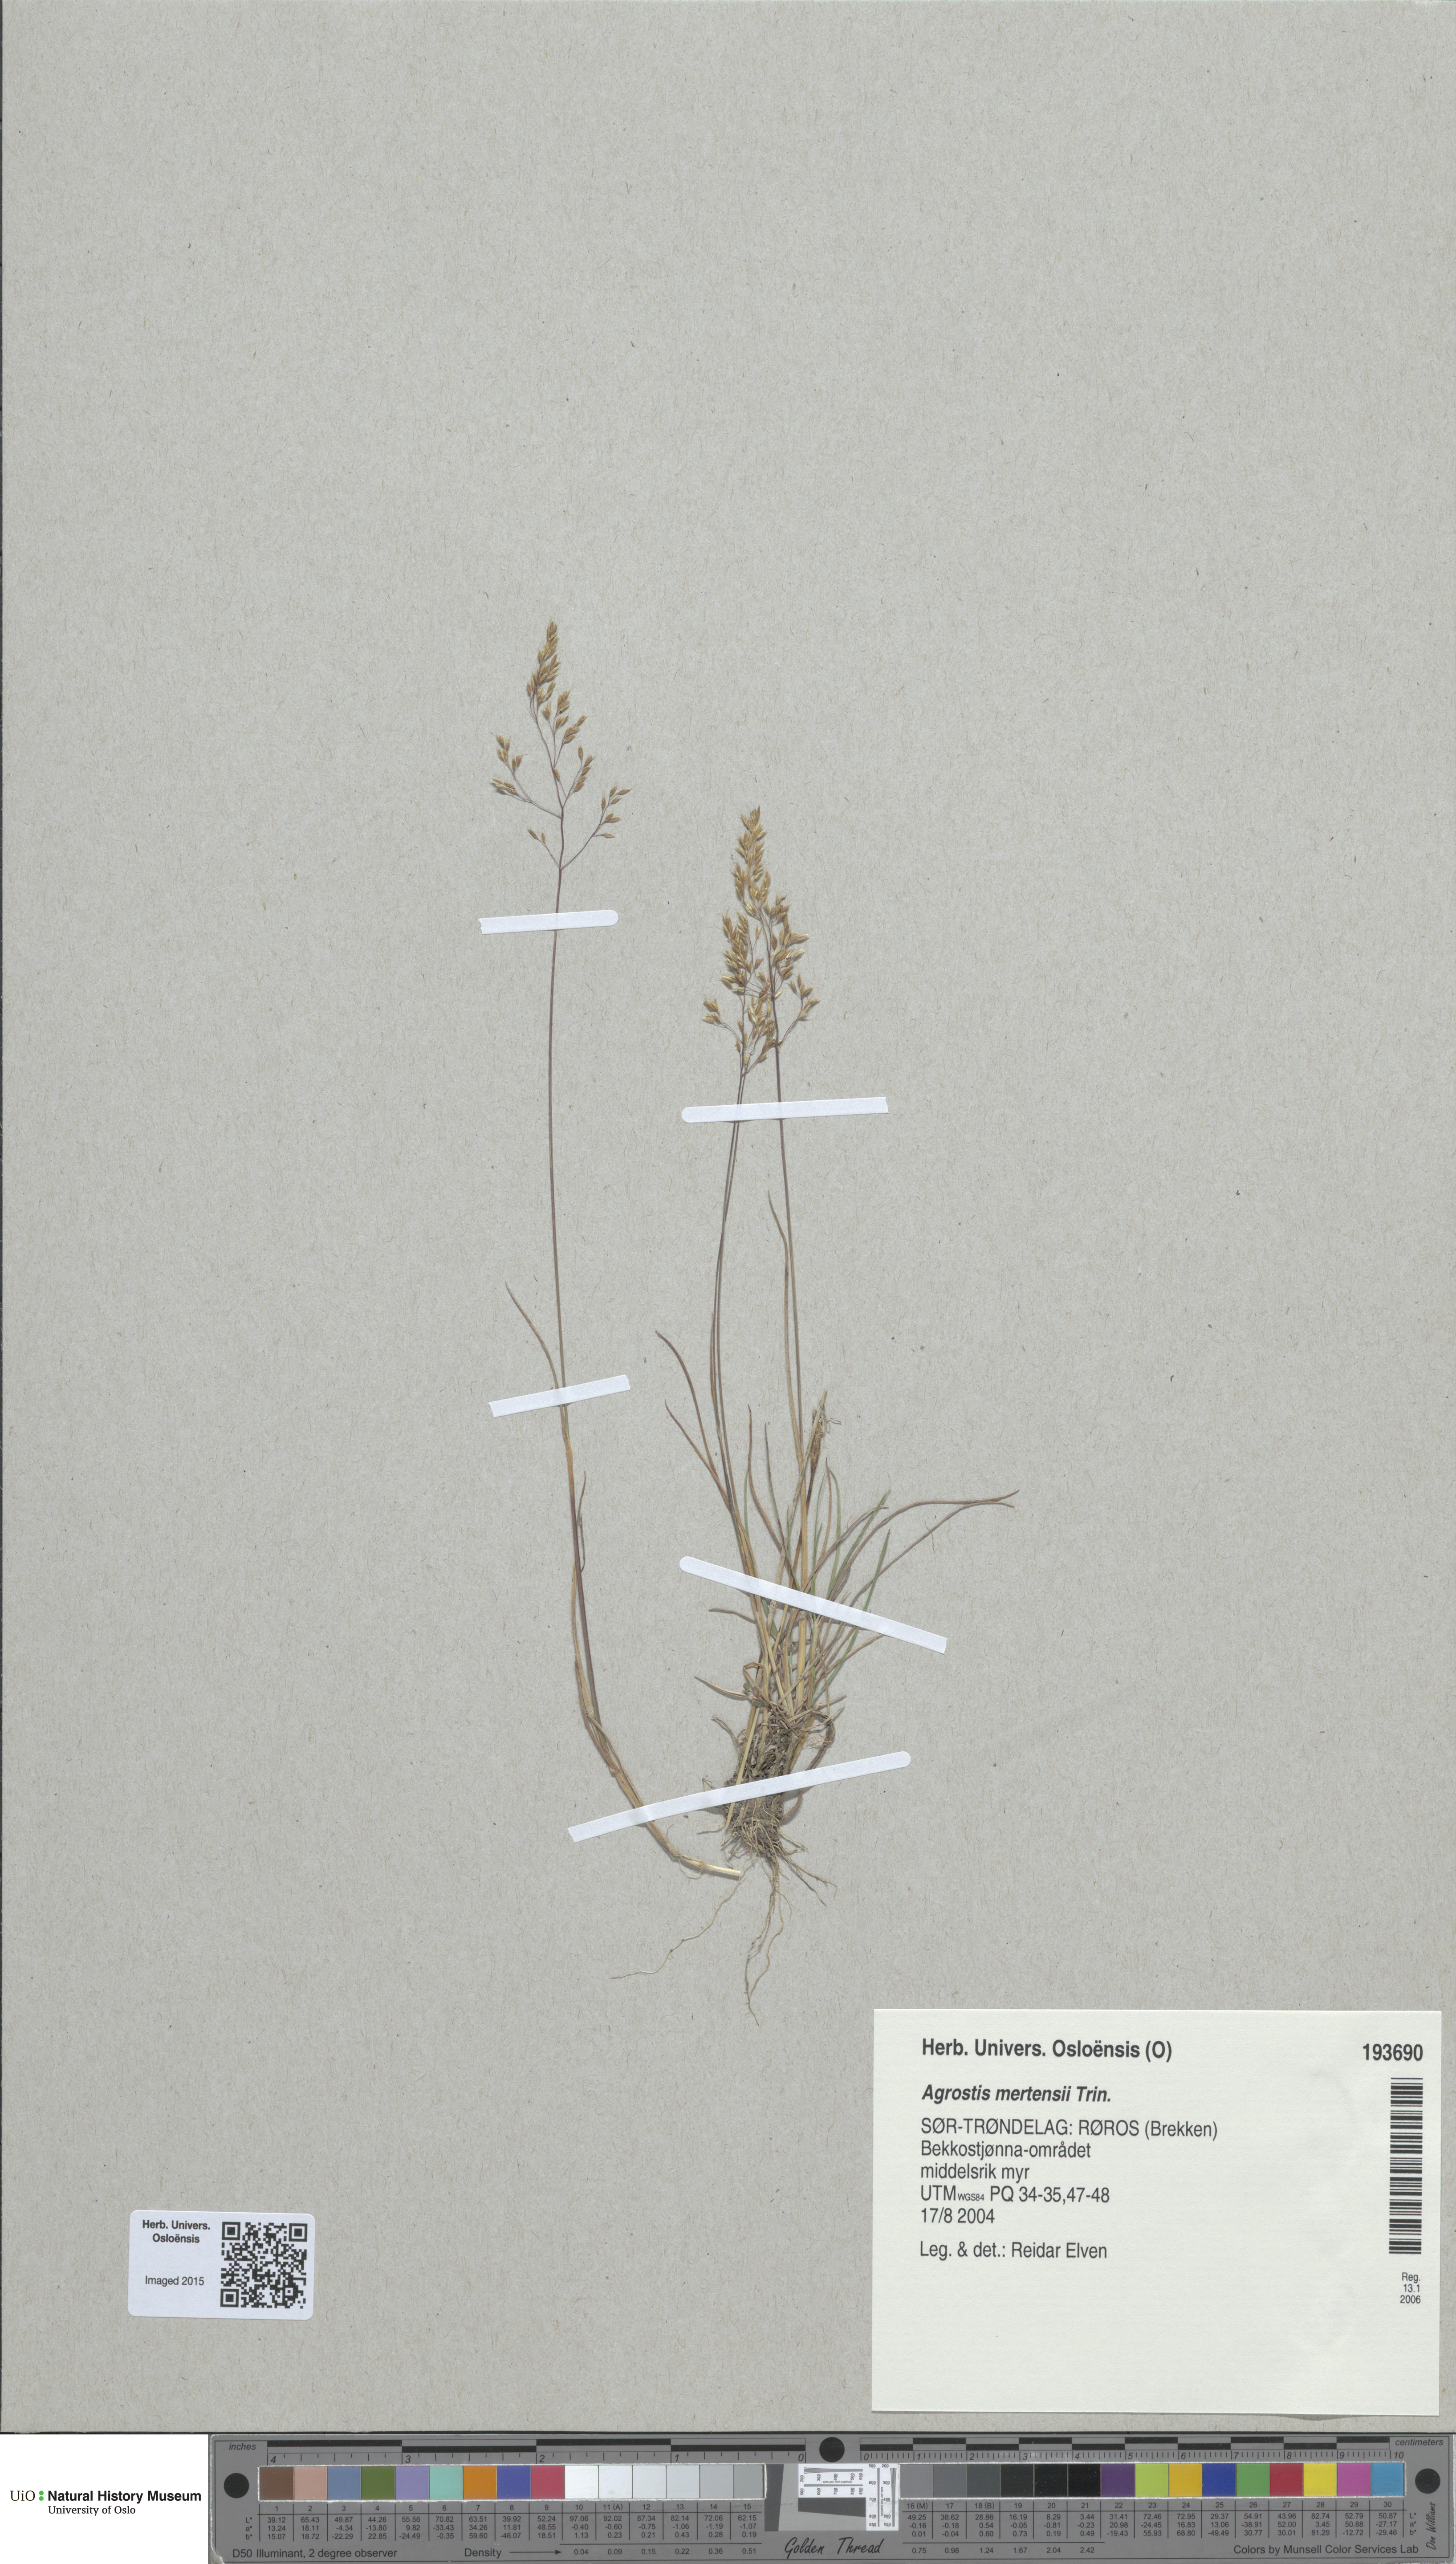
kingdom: Plantae
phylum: Tracheophyta
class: Liliopsida
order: Poales
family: Poaceae
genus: Agrostis
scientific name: Agrostis mertensii
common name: Northern bent
